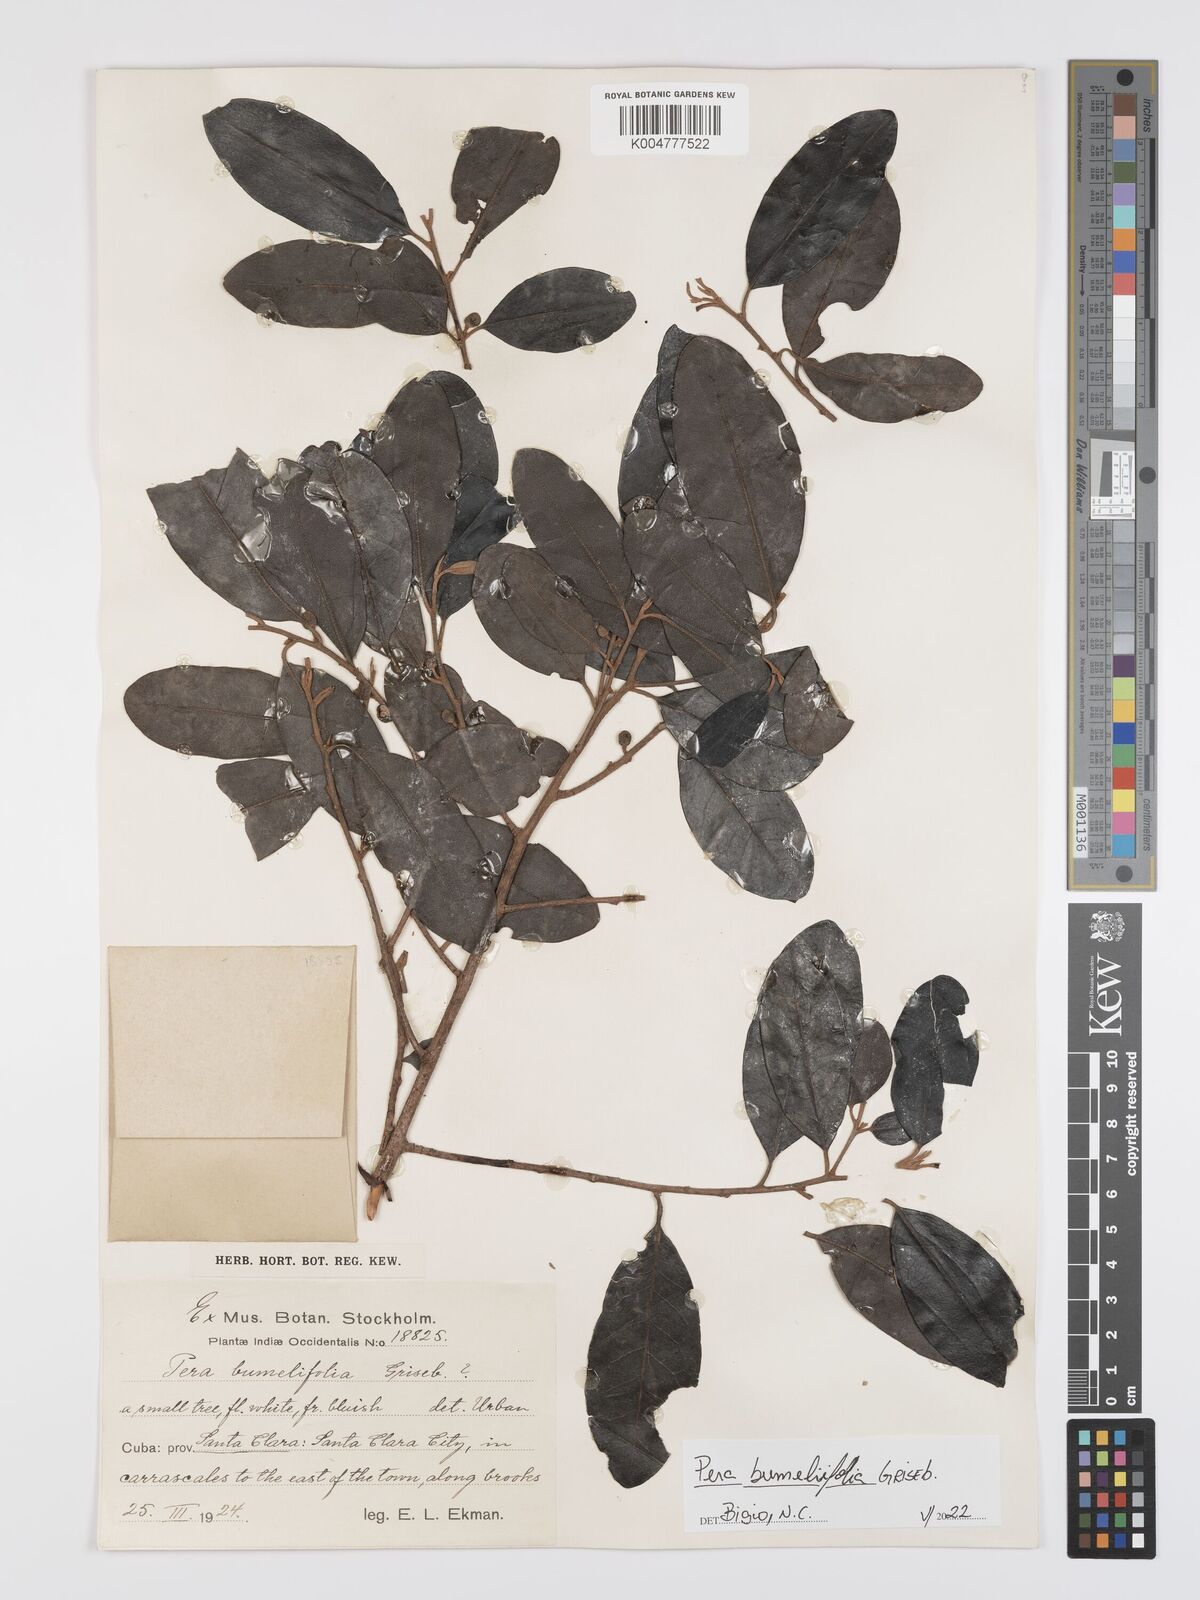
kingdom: Plantae
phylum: Tracheophyta
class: Magnoliopsida
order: Malpighiales
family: Peraceae
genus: Pera
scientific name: Pera
